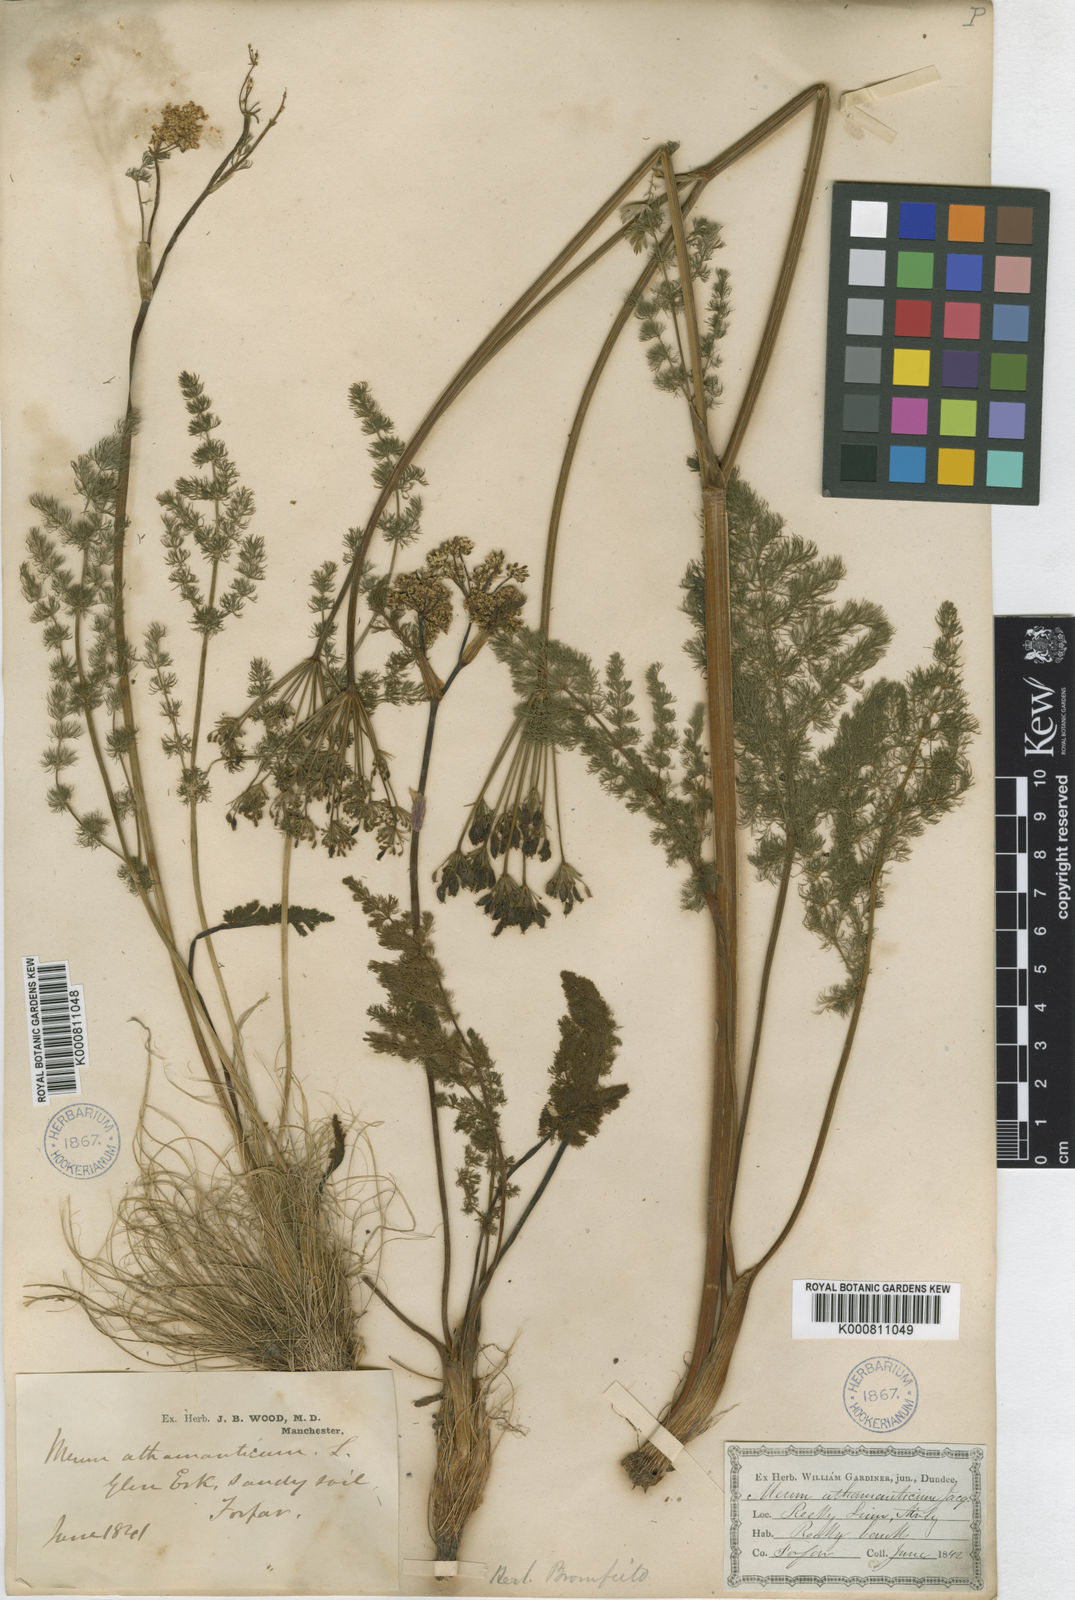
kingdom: Plantae
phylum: Tracheophyta
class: Magnoliopsida
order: Apiales
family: Apiaceae
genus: Meum
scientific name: Meum athamanticum
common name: Spignel
